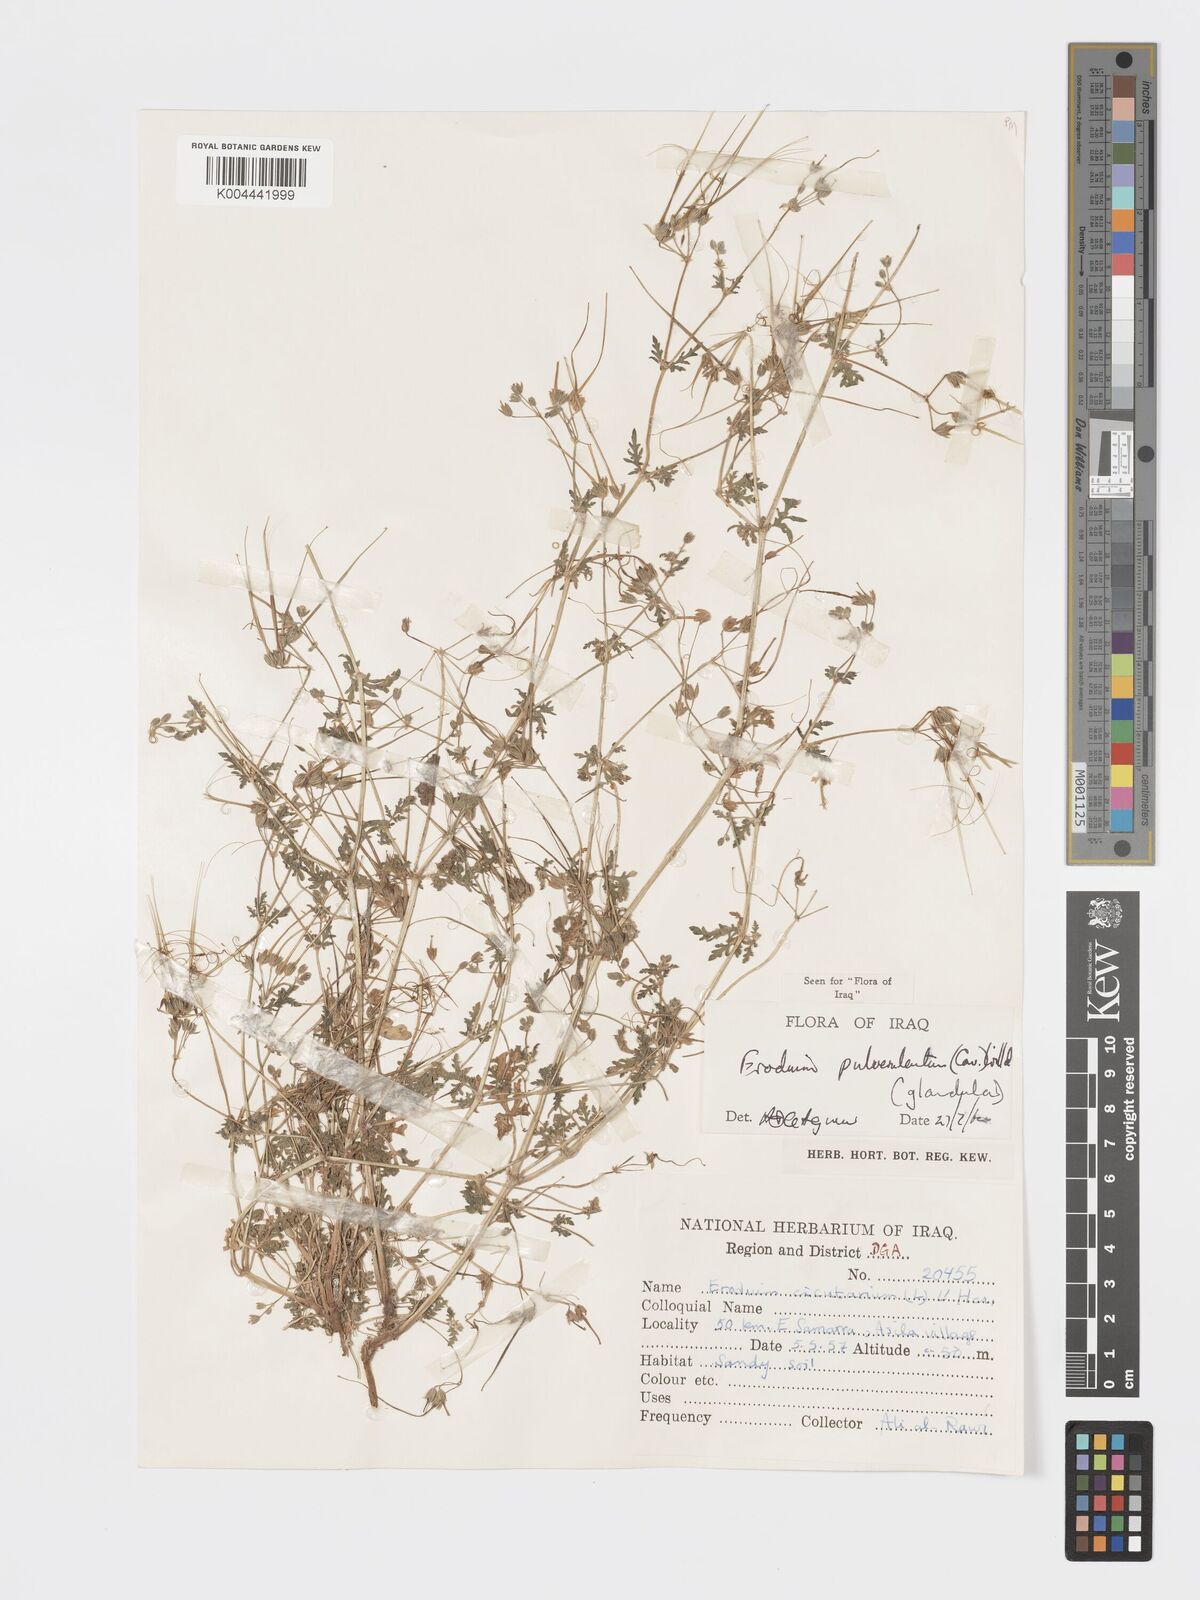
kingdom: Plantae
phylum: Tracheophyta
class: Magnoliopsida
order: Geraniales
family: Geraniaceae
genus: Erodium
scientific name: Erodium laciniatum
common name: Cutleaf stork's bill
